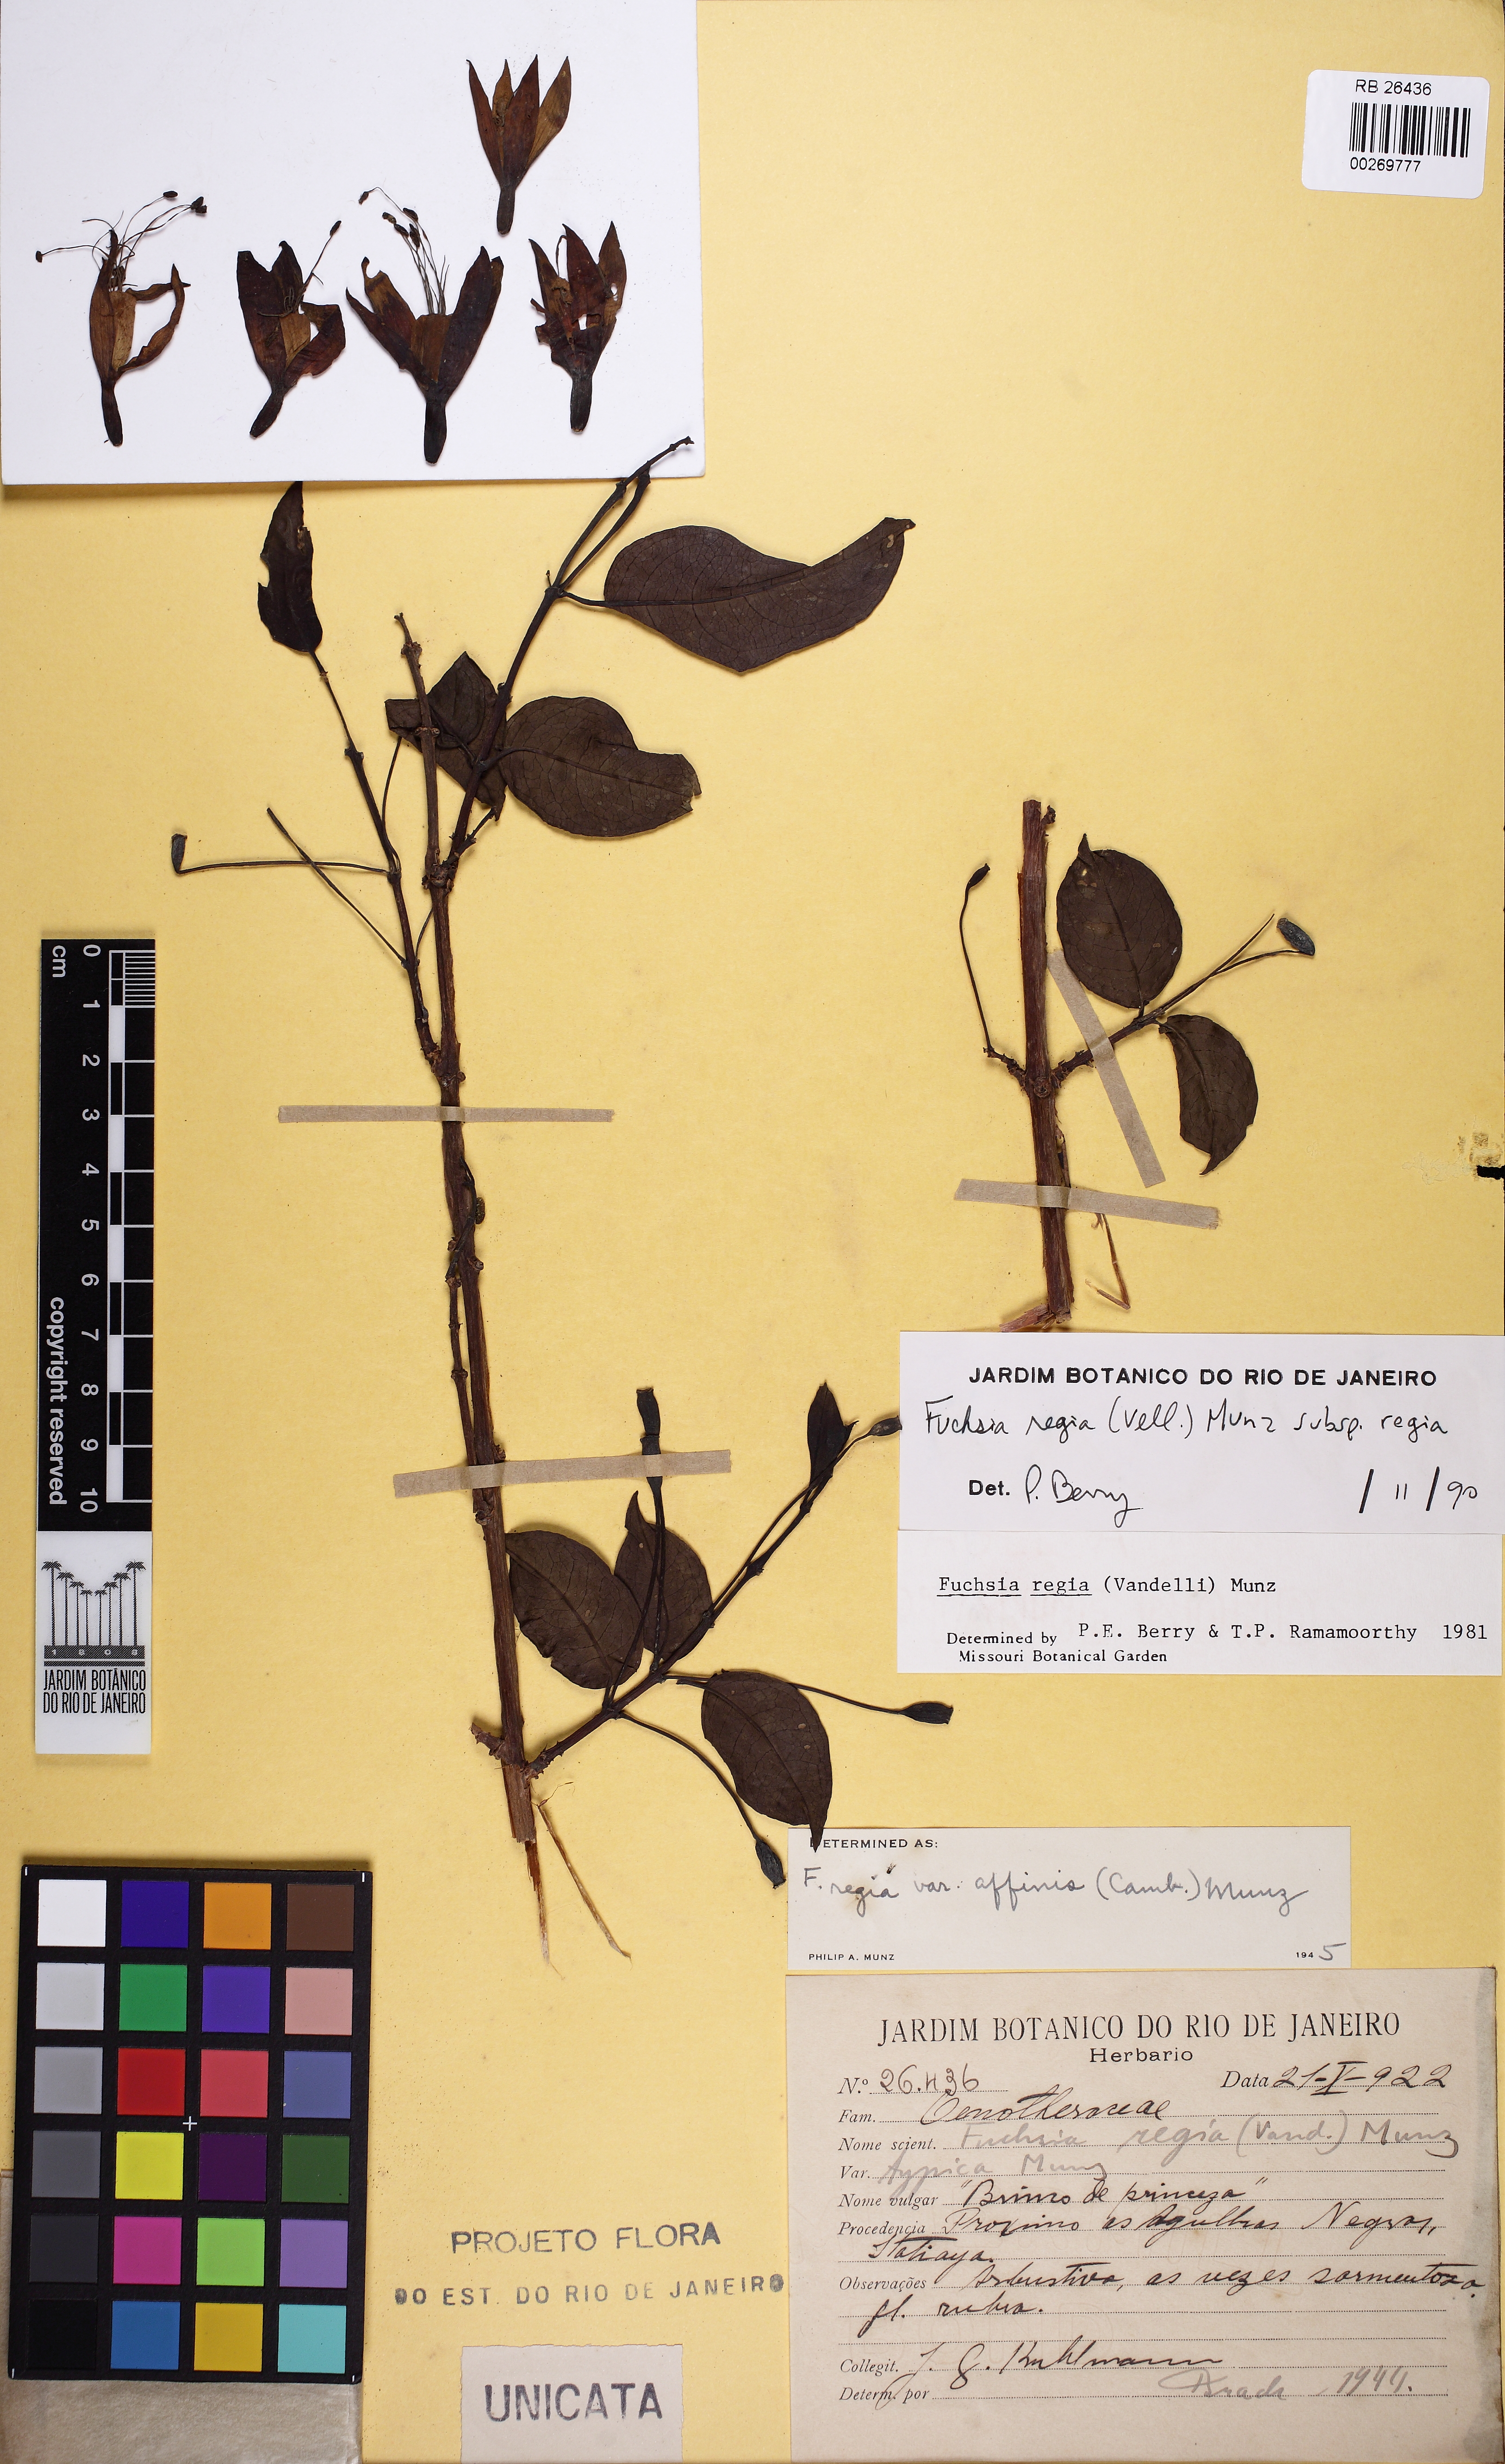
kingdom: Plantae
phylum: Tracheophyta
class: Magnoliopsida
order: Myrtales
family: Onagraceae
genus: Fuchsia
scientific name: Fuchsia magellanica
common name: Hardy fuchsia
